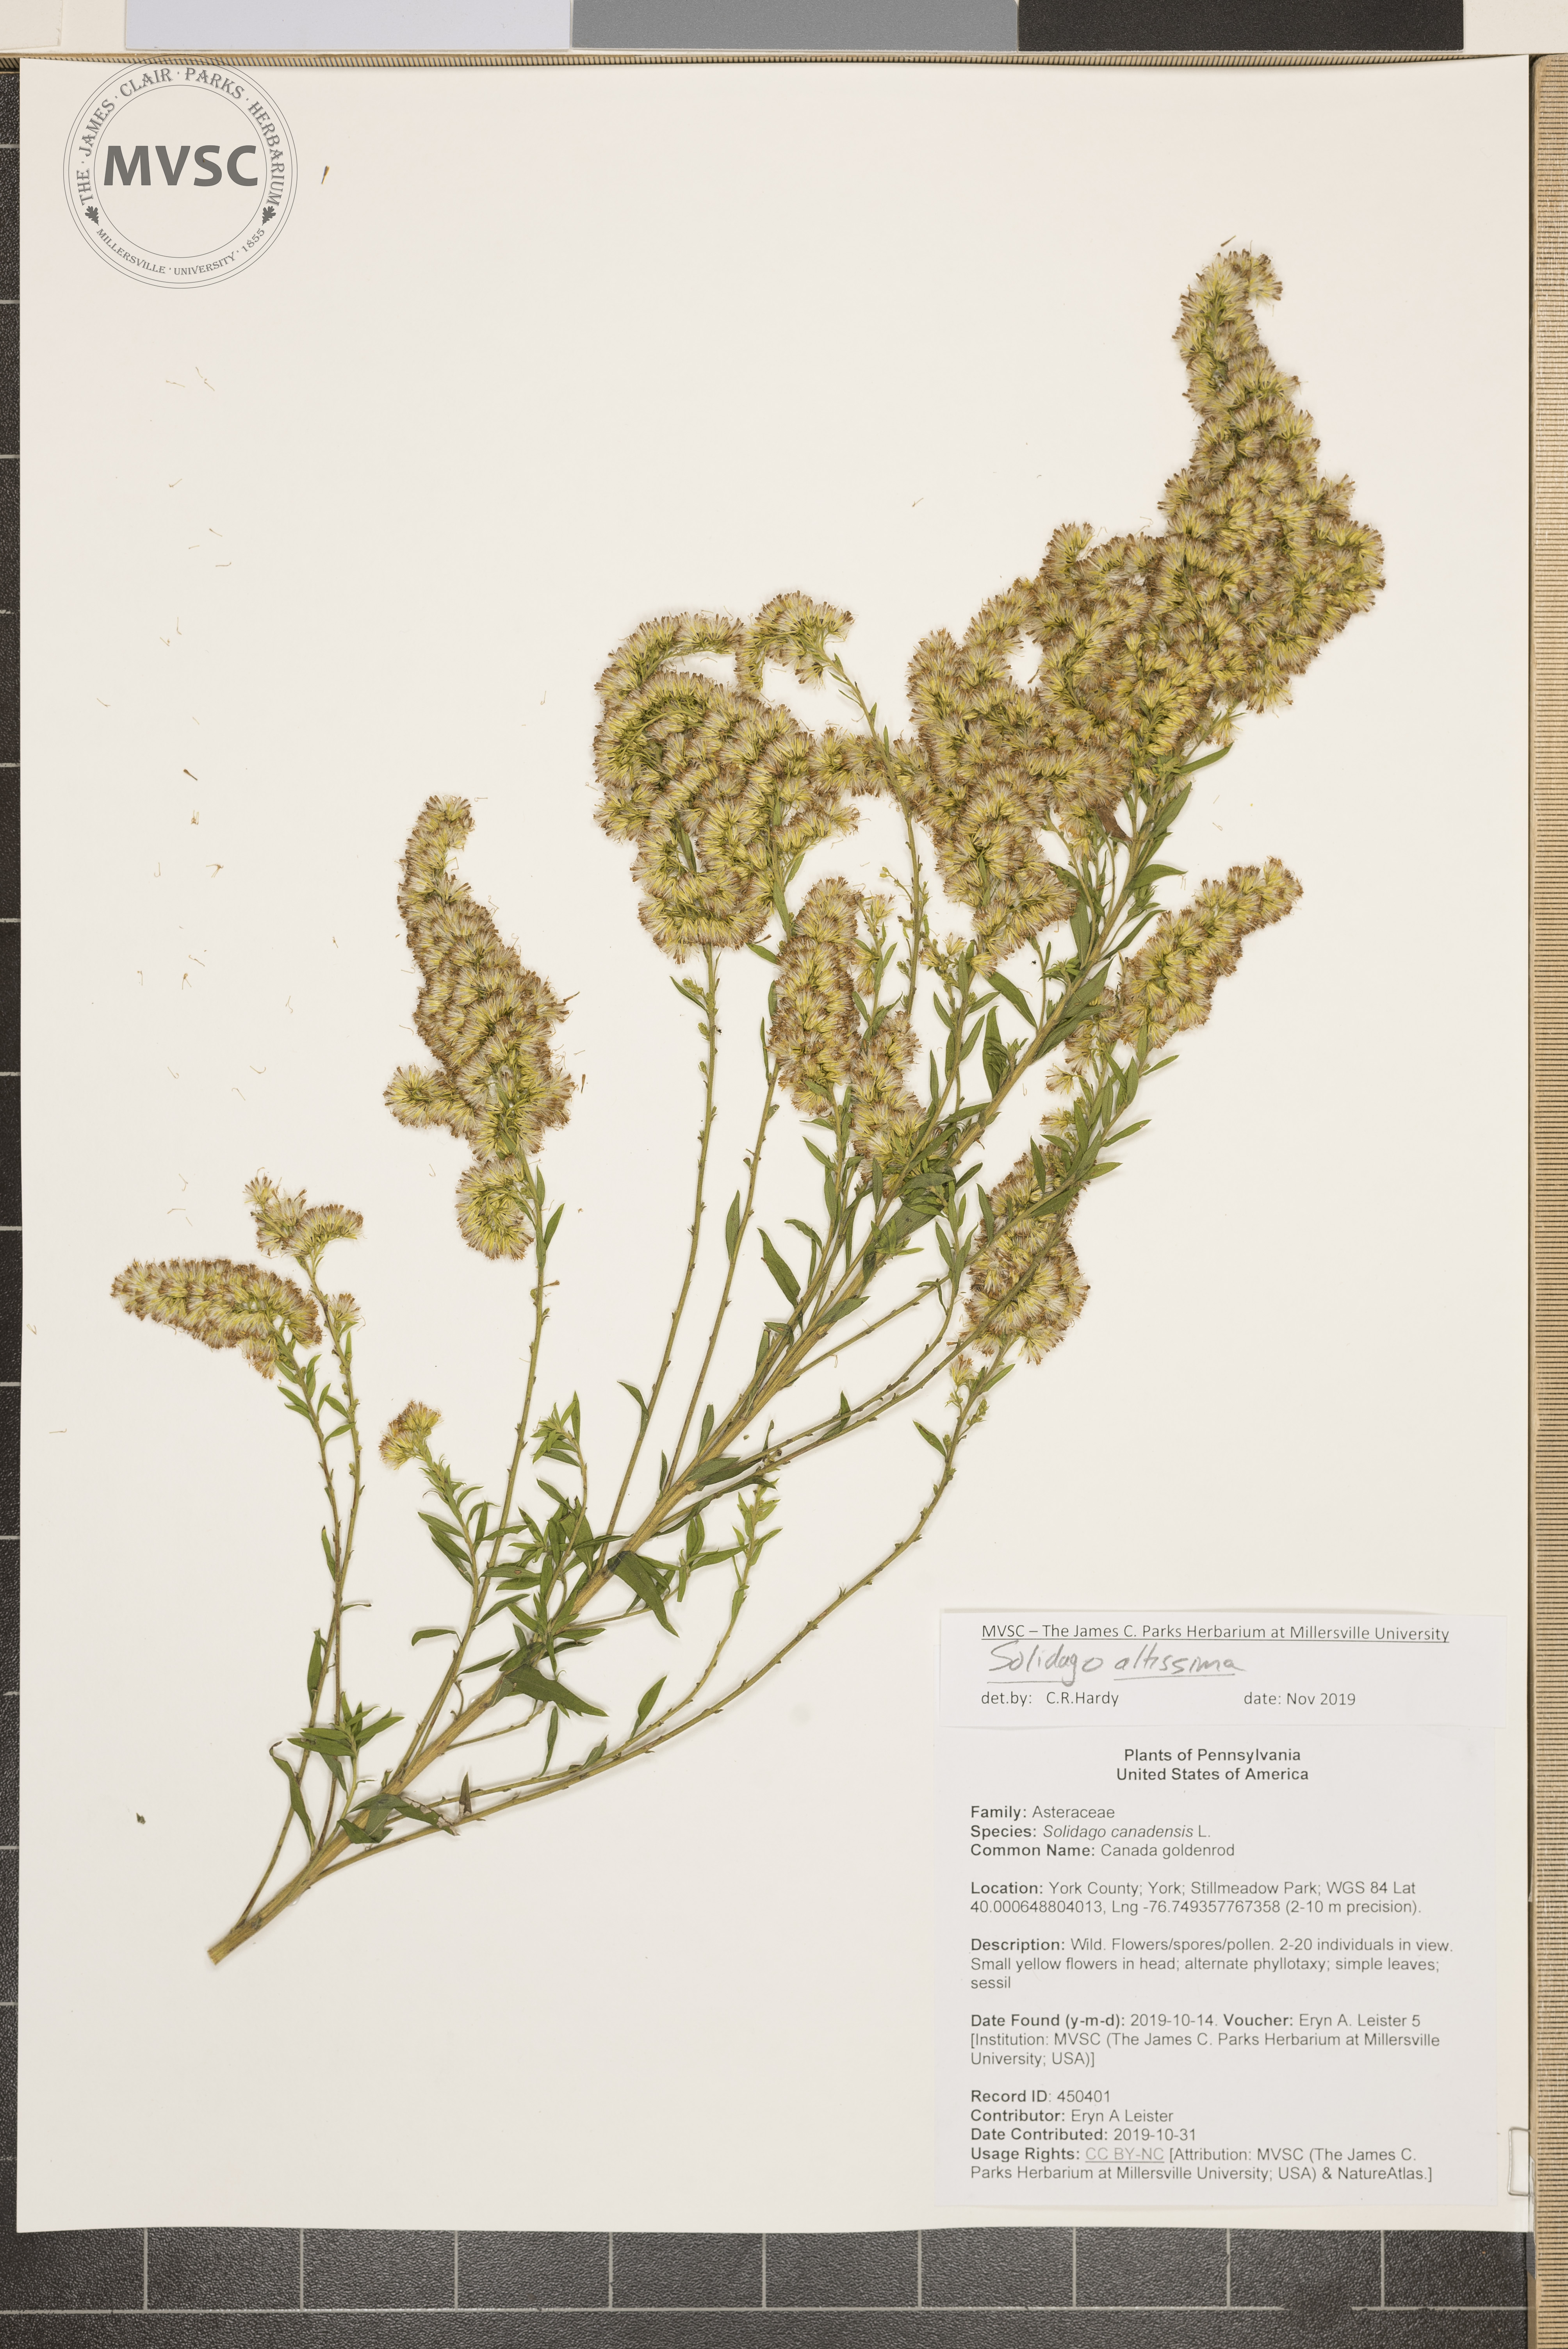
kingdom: Plantae
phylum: Tracheophyta
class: Magnoliopsida
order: Asterales
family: Asteraceae
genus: Solidago
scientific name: Solidago altissima
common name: Late goldenrod
